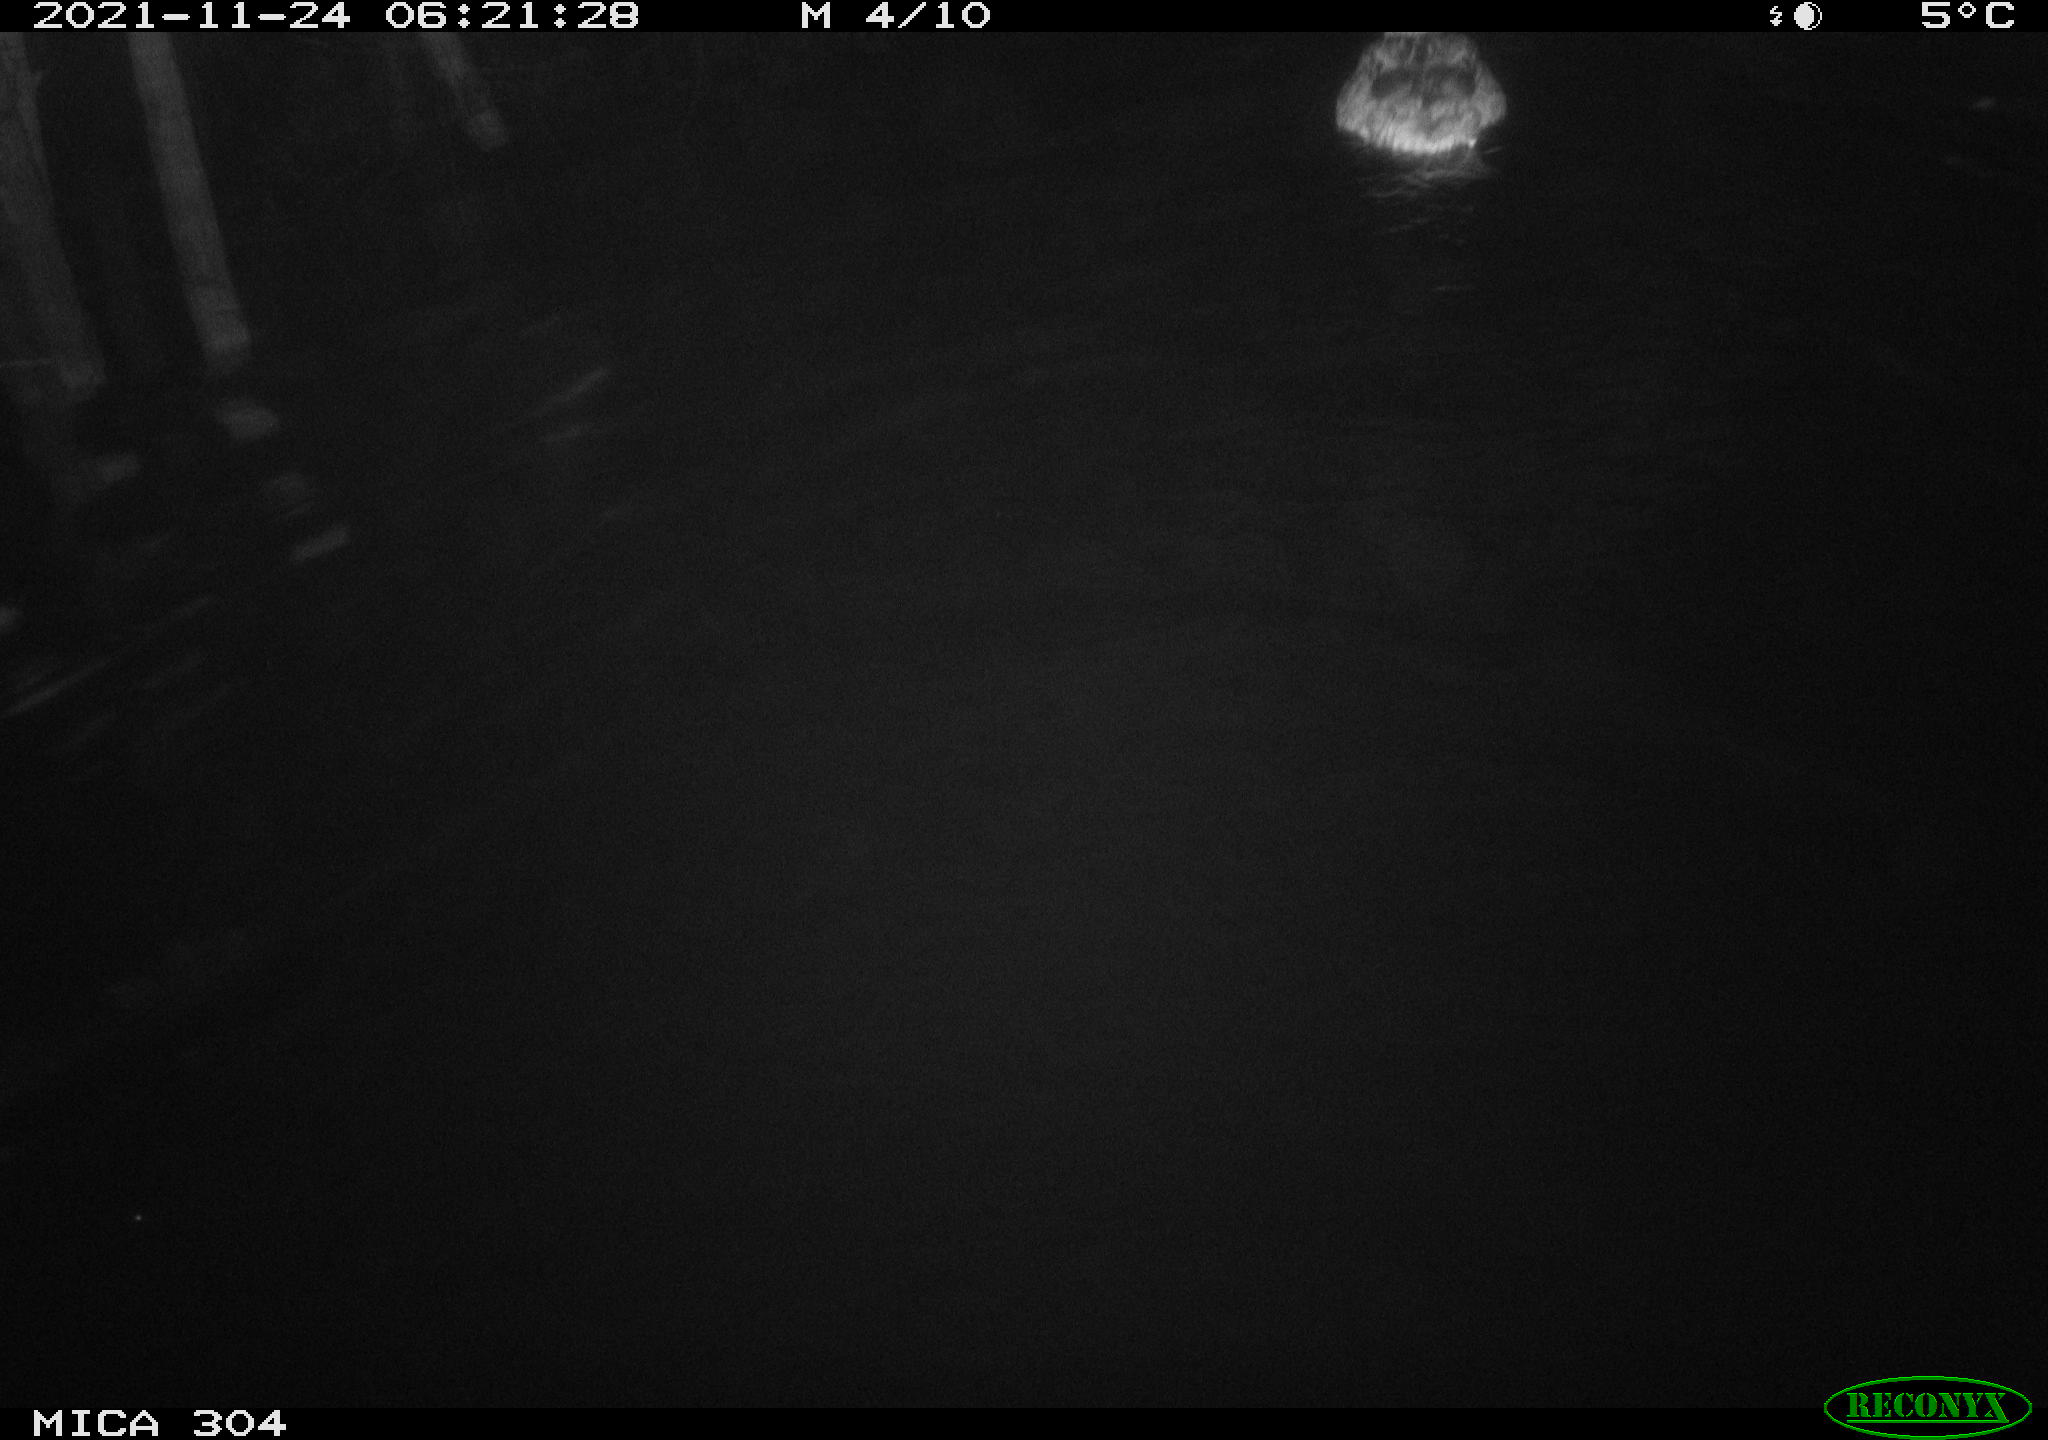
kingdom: Animalia
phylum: Chordata
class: Aves
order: Anseriformes
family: Anatidae
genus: Anas
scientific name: Anas platyrhynchos
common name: Mallard
